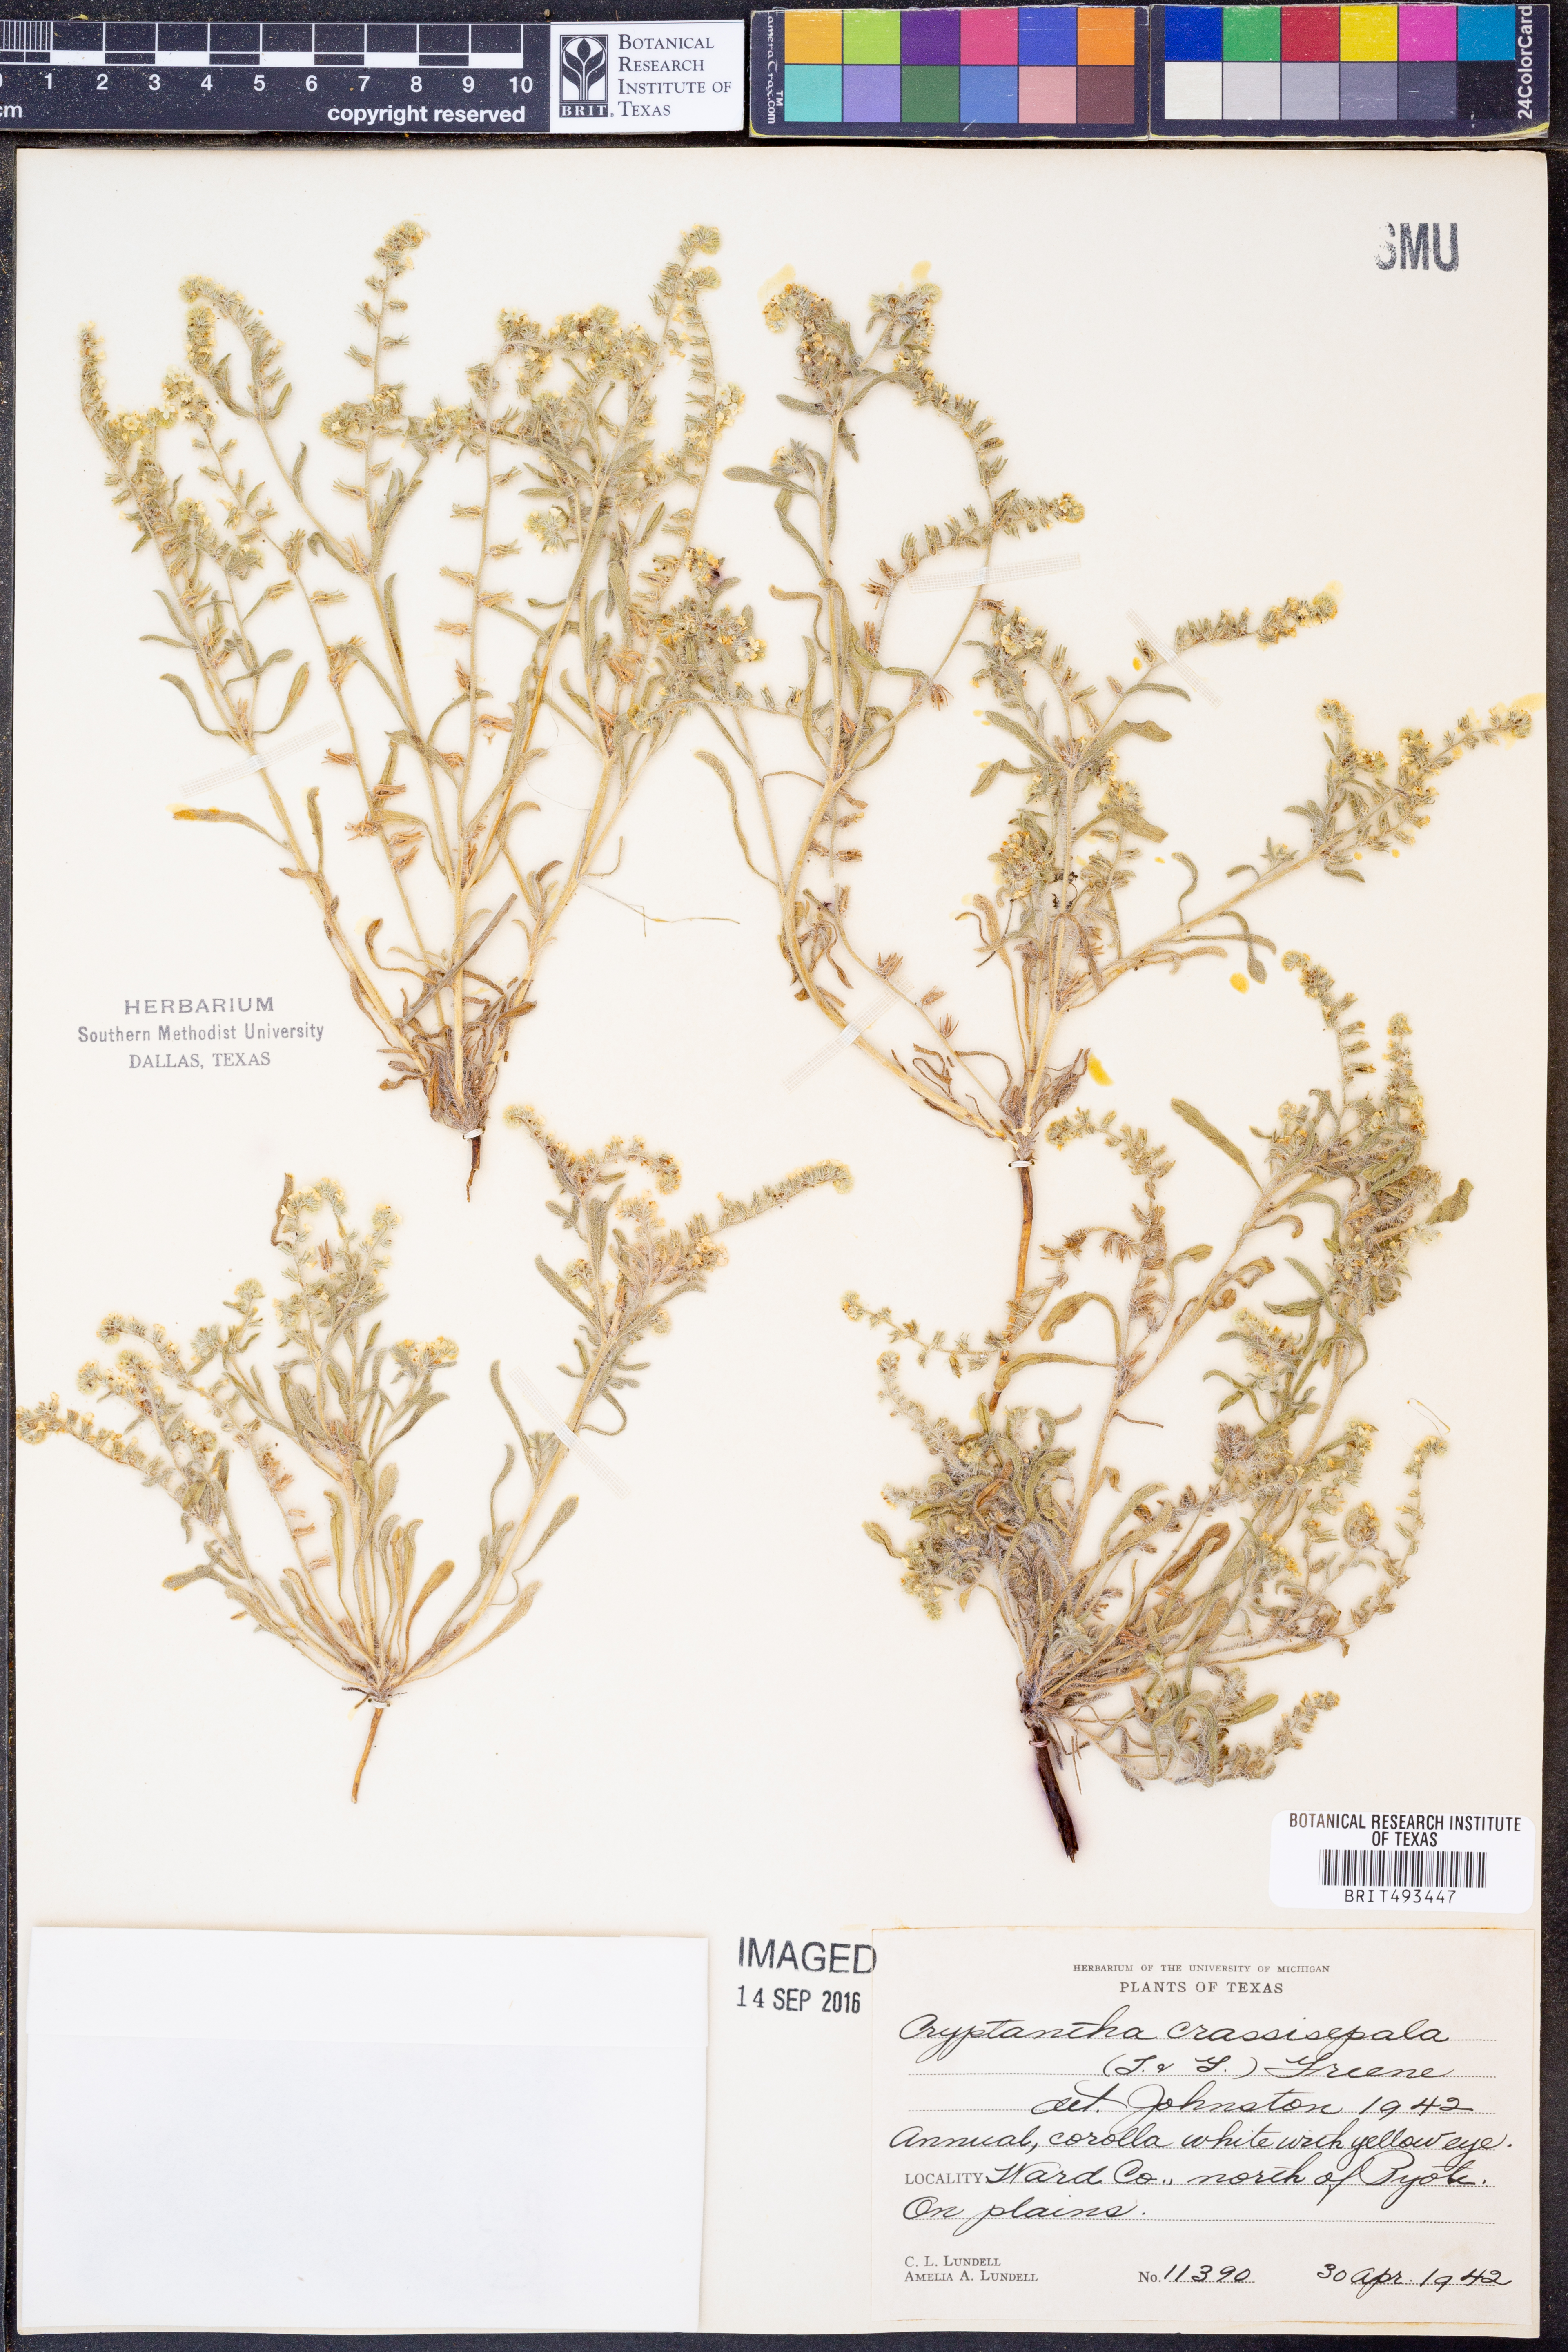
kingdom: Plantae
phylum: Tracheophyta
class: Magnoliopsida
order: Boraginales
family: Boraginaceae
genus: Cryptantha
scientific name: Cryptantha crassisepala
